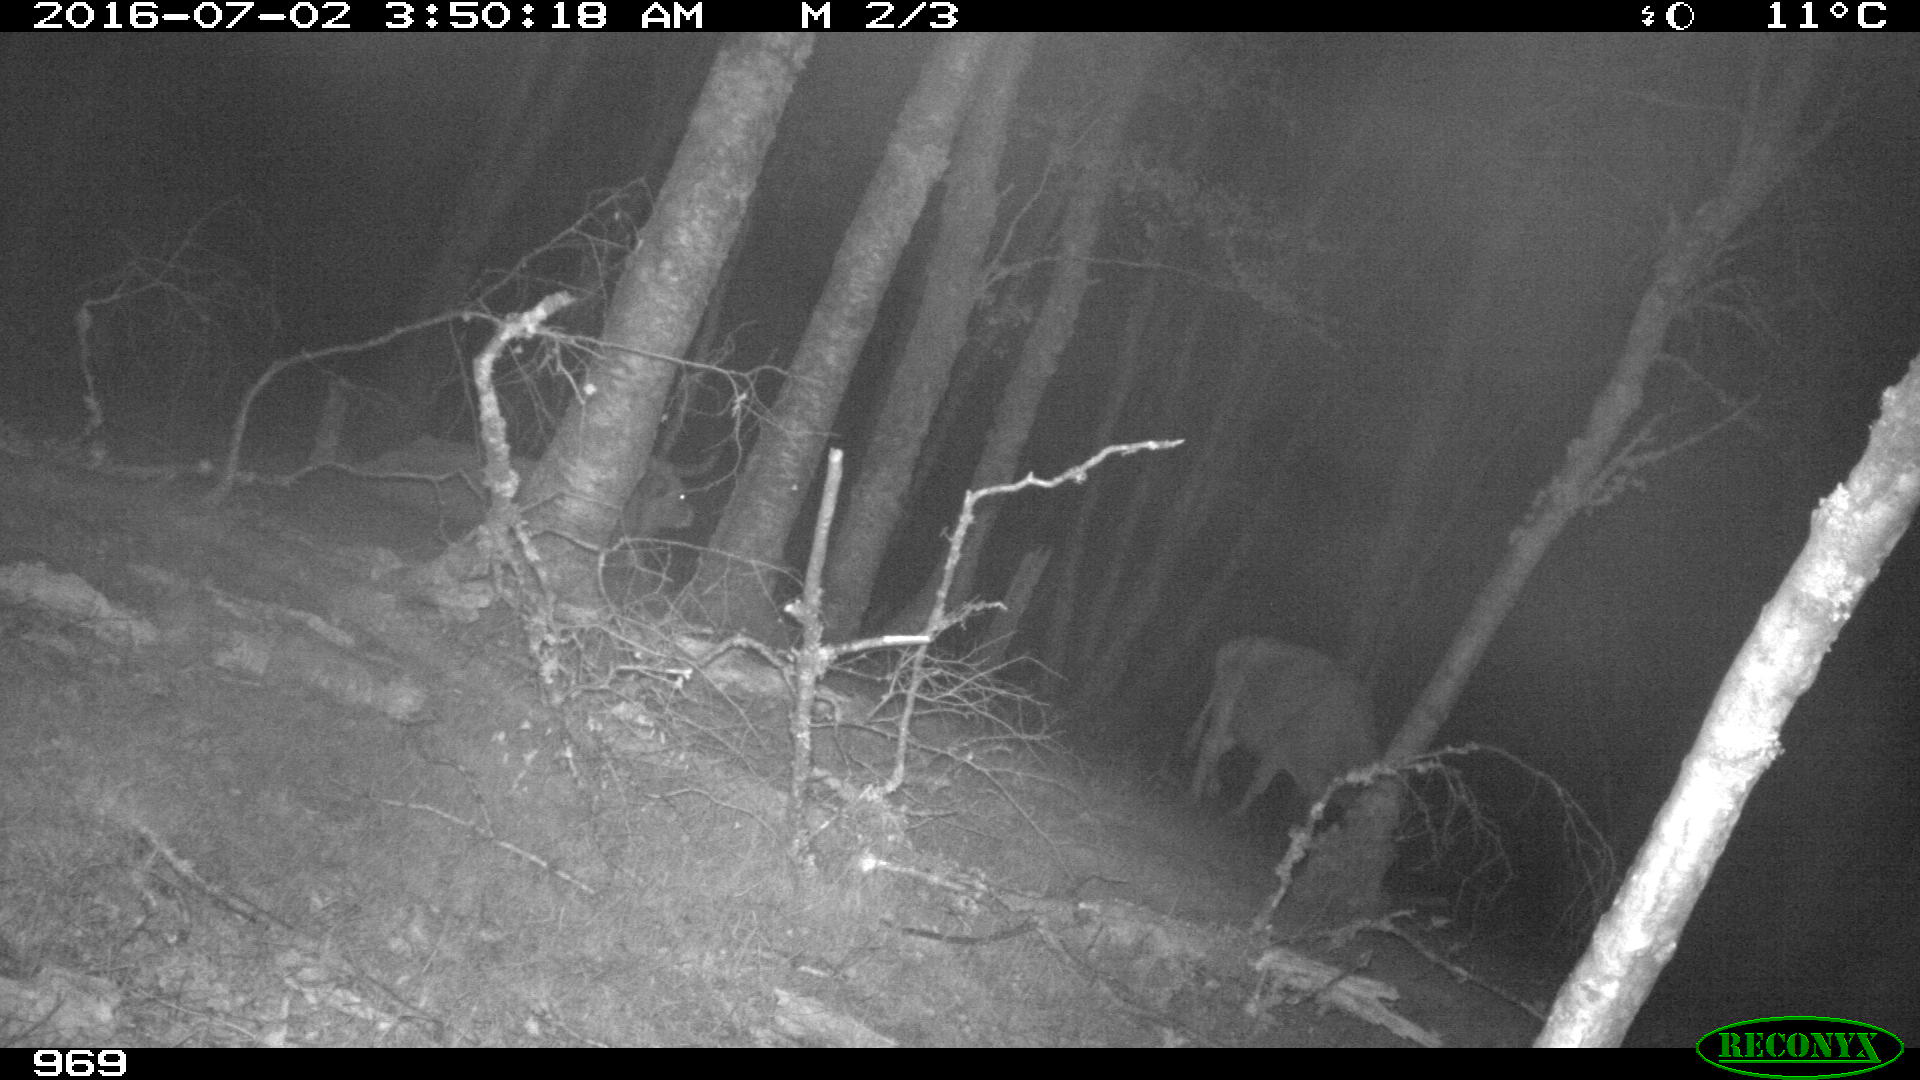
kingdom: Animalia
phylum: Chordata
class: Mammalia
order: Artiodactyla
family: Bovidae
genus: Bos
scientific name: Bos taurus
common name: Domesticated cattle
